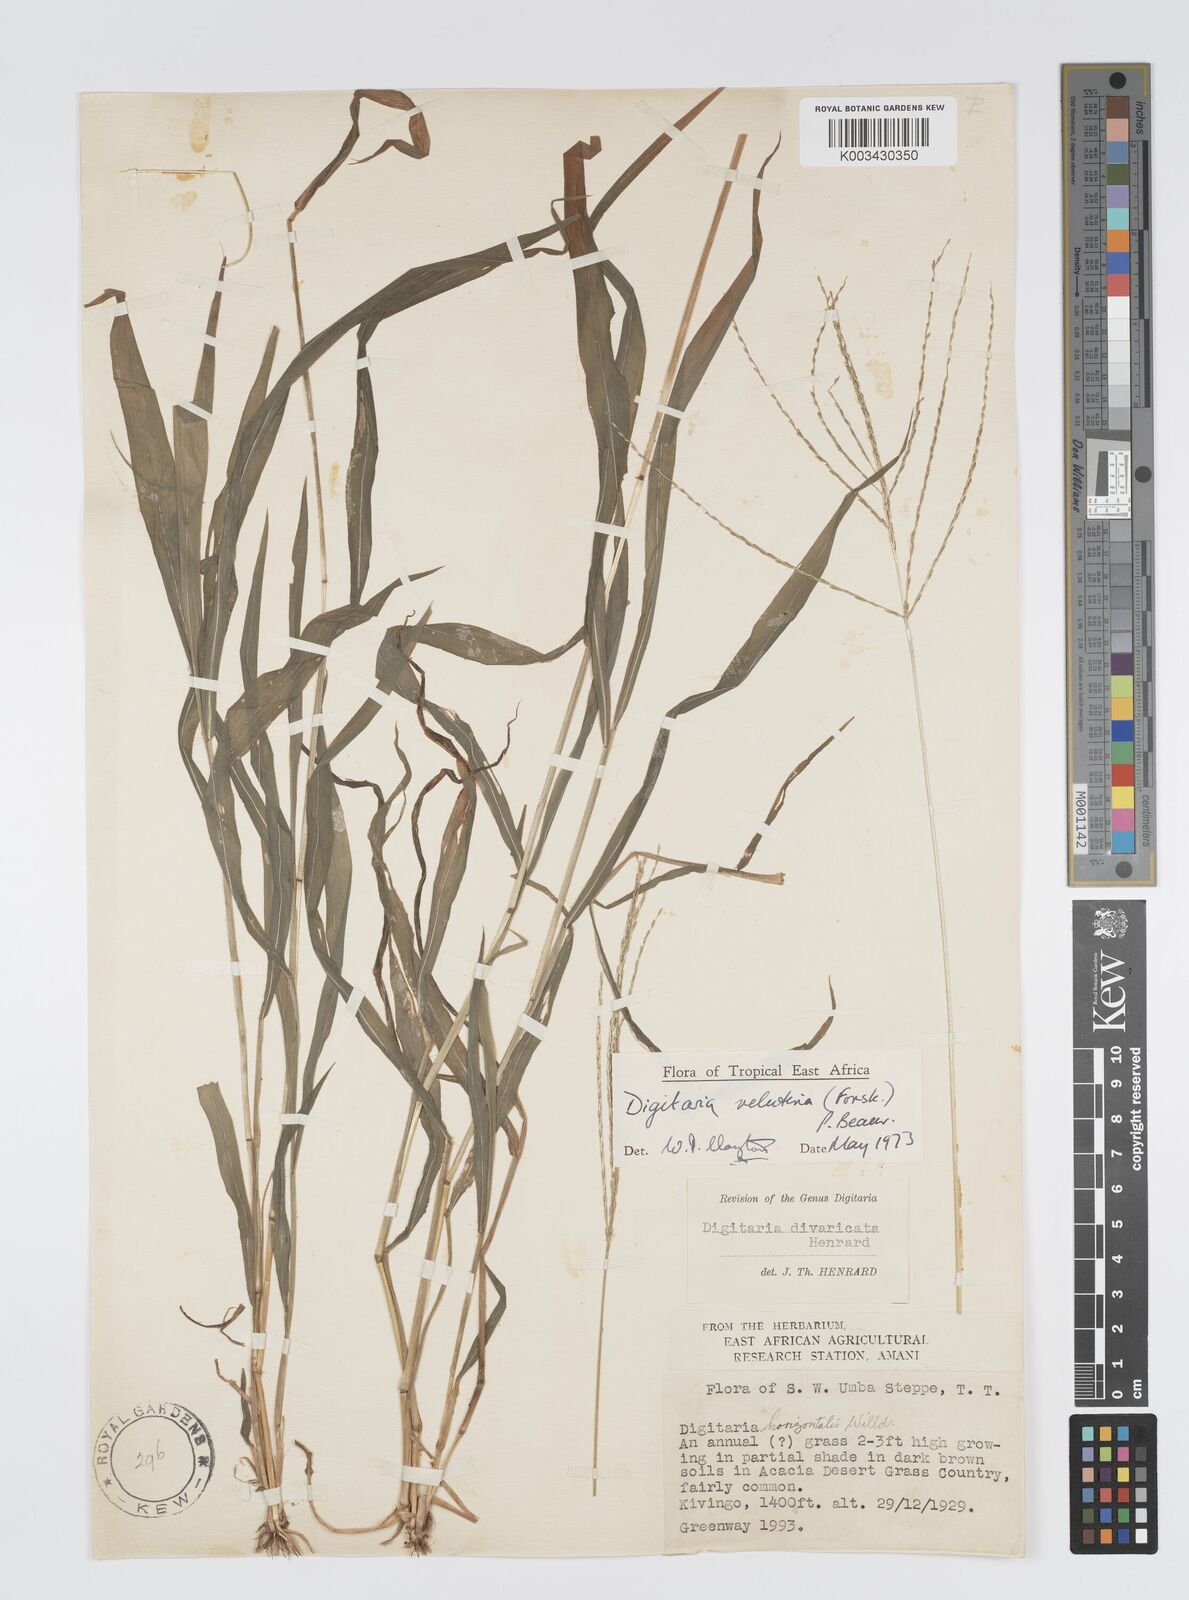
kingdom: Plantae
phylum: Tracheophyta
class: Liliopsida
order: Poales
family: Poaceae
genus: Digitaria
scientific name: Digitaria velutina
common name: Long-plume finger grass
